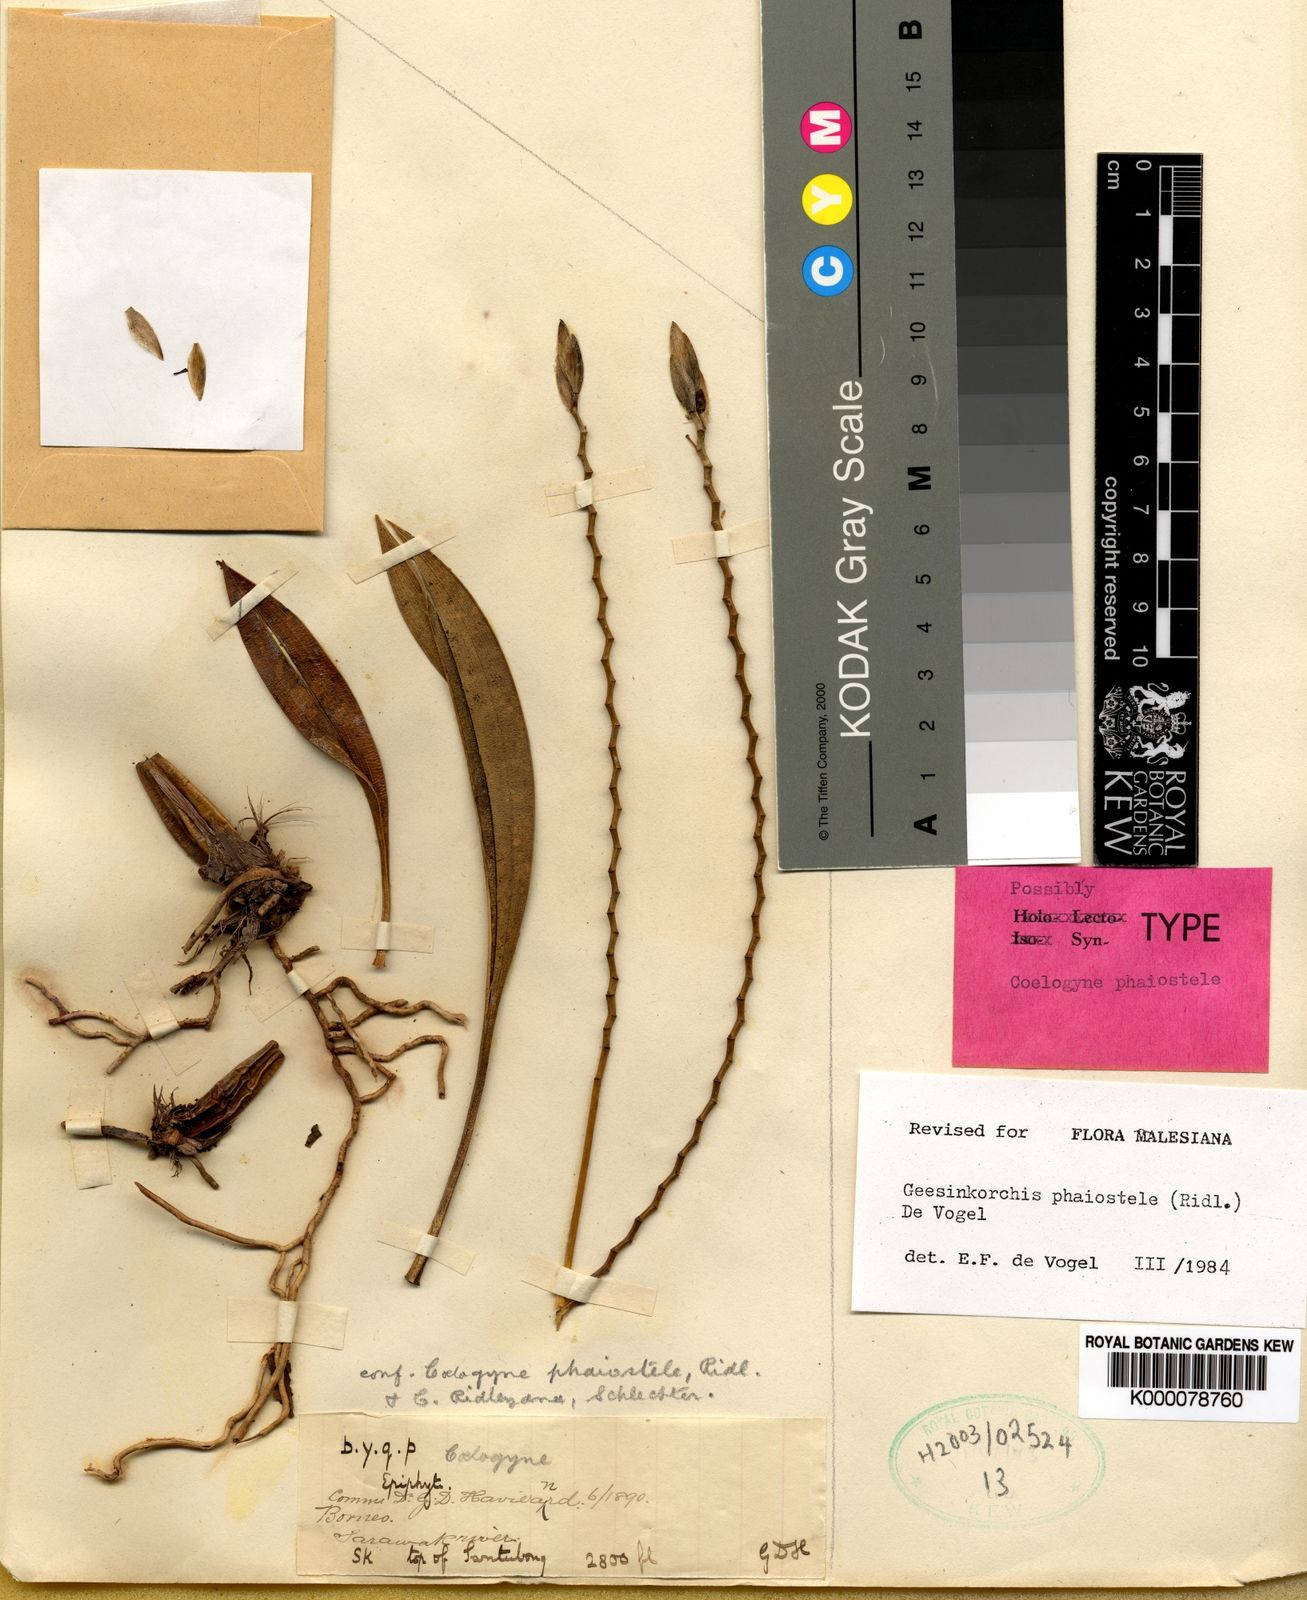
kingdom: Plantae
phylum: Tracheophyta
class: Liliopsida
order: Asparagales
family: Orchidaceae
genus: Coelogyne
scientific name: Coelogyne phaiostele
